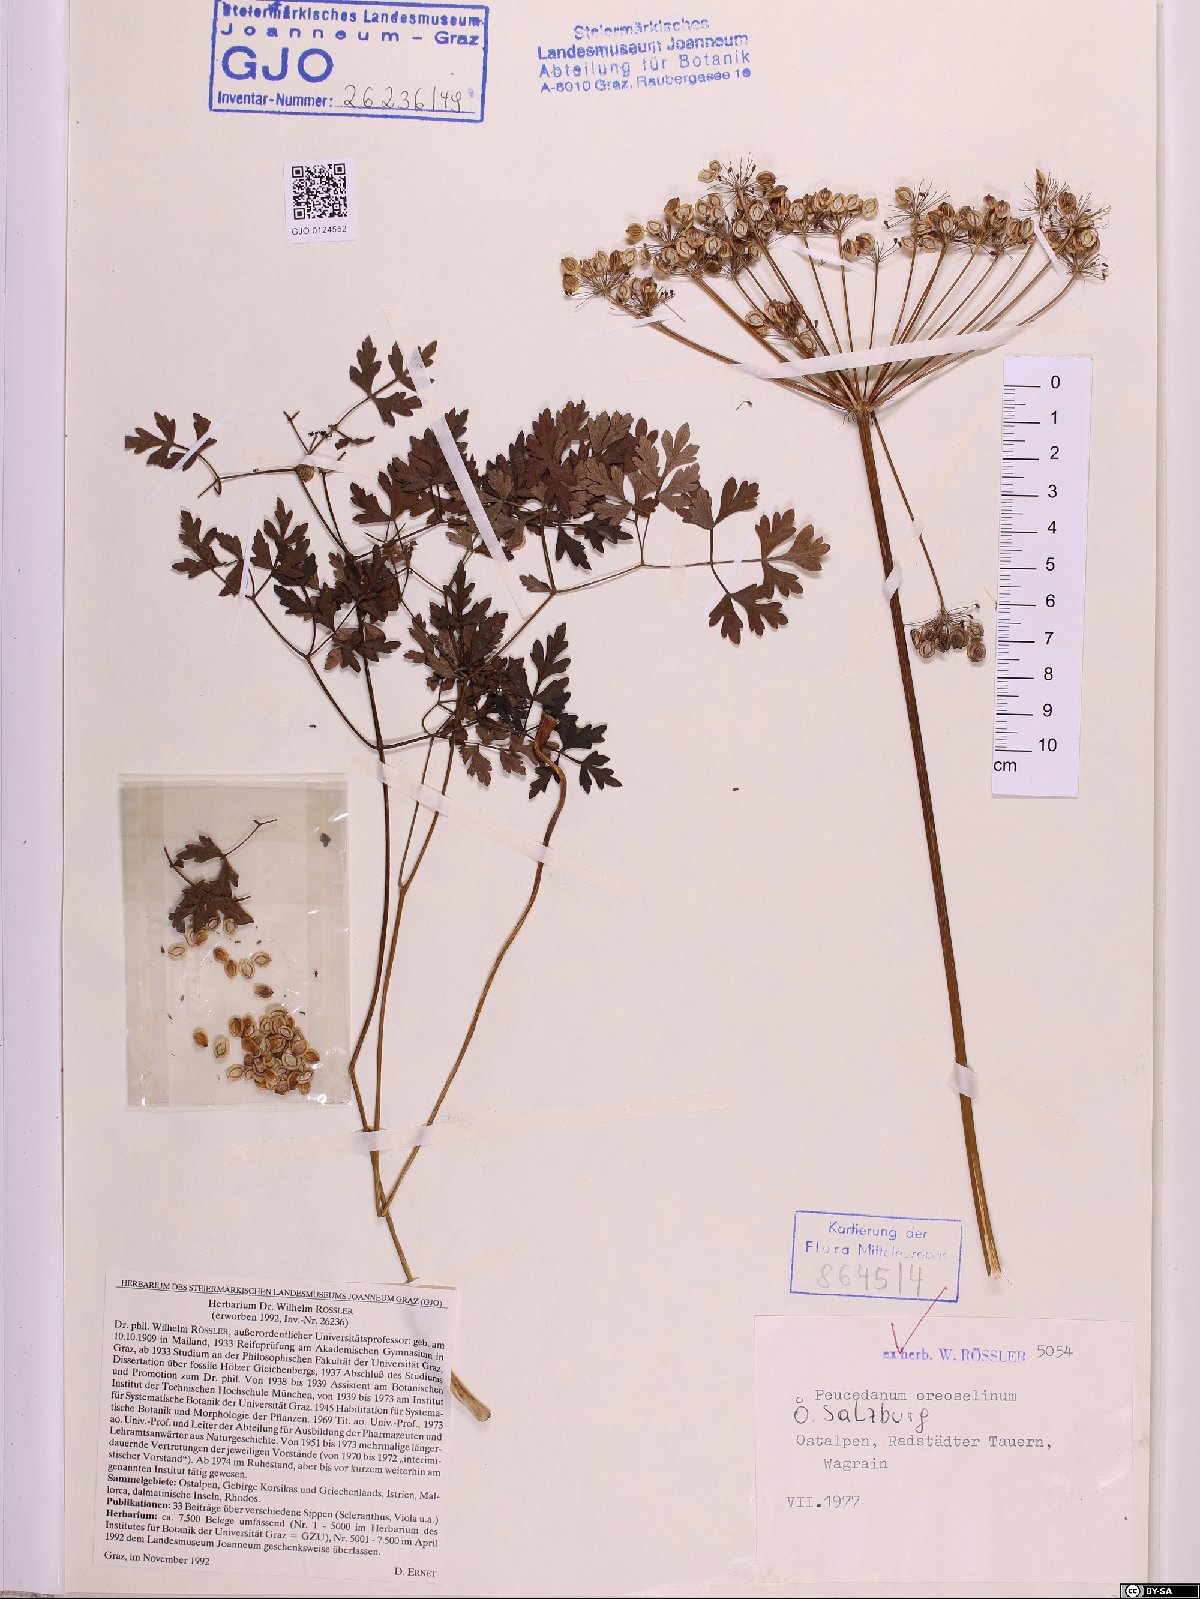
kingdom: Plantae
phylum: Tracheophyta
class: Magnoliopsida
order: Apiales
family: Apiaceae
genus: Oreoselinum
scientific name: Oreoselinum nigrum
